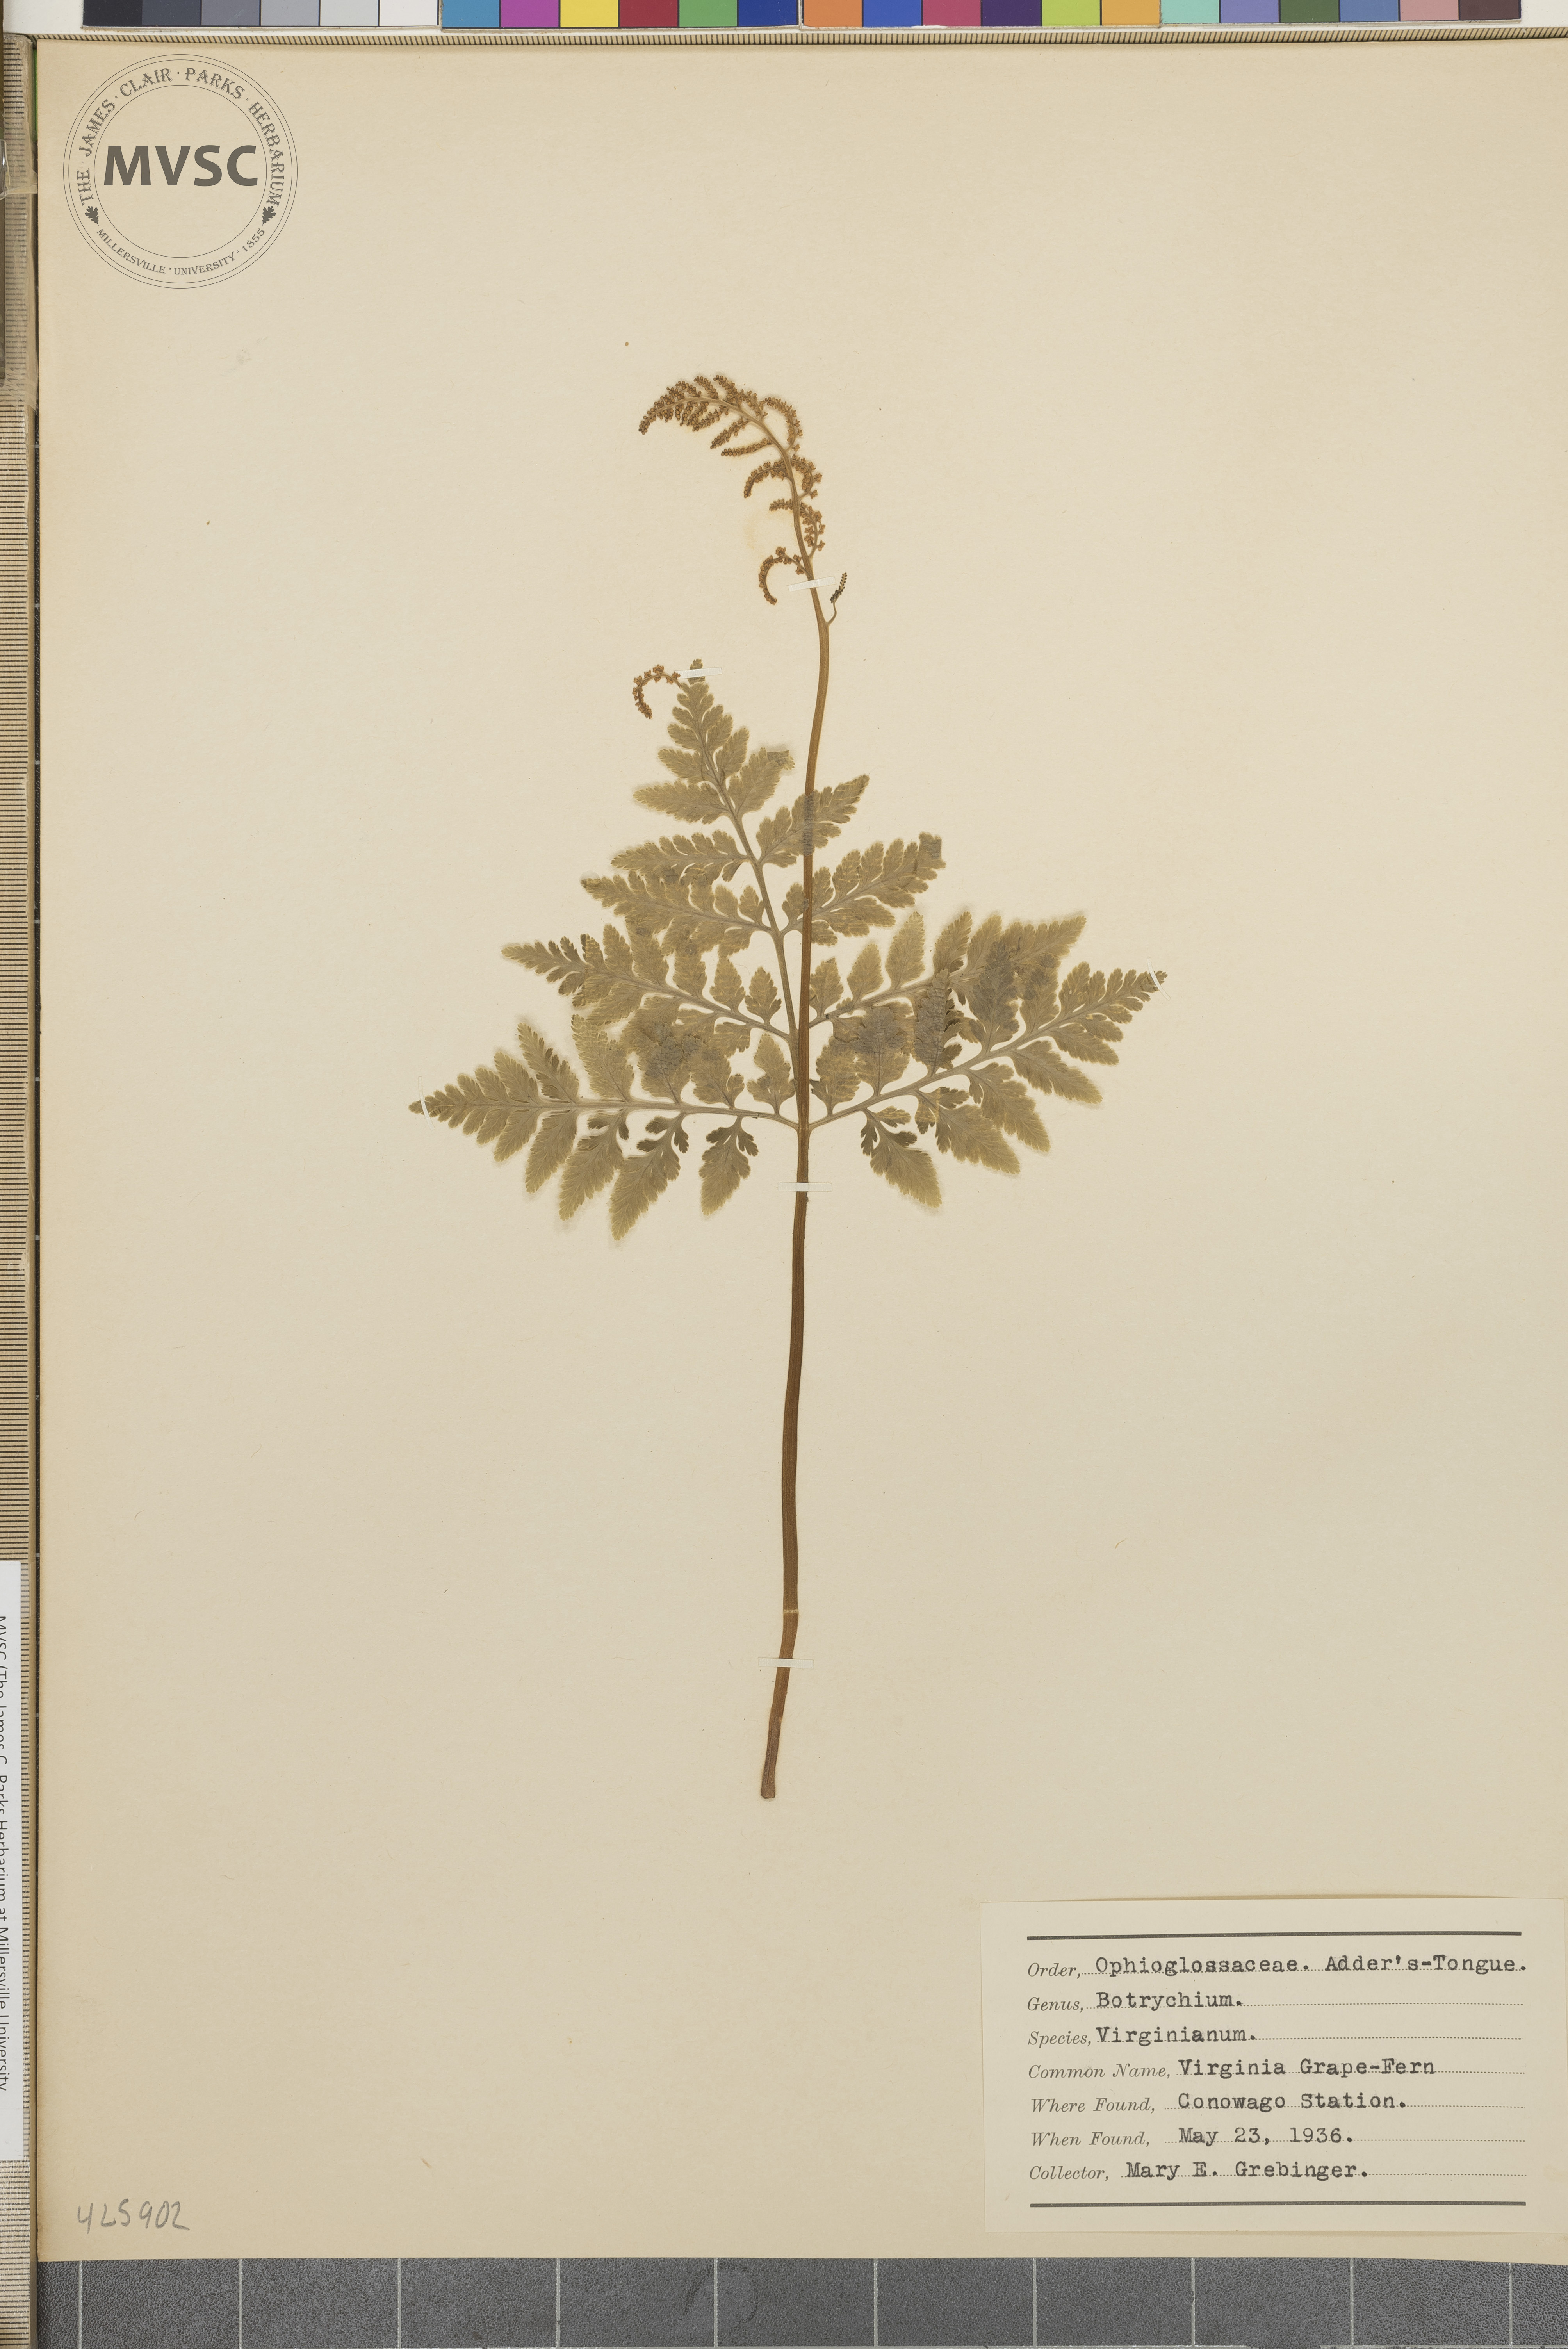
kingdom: Plantae
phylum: Tracheophyta
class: Polypodiopsida
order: Ophioglossales
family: Ophioglossaceae
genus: Botrychium
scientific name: Botrychium virginianum
